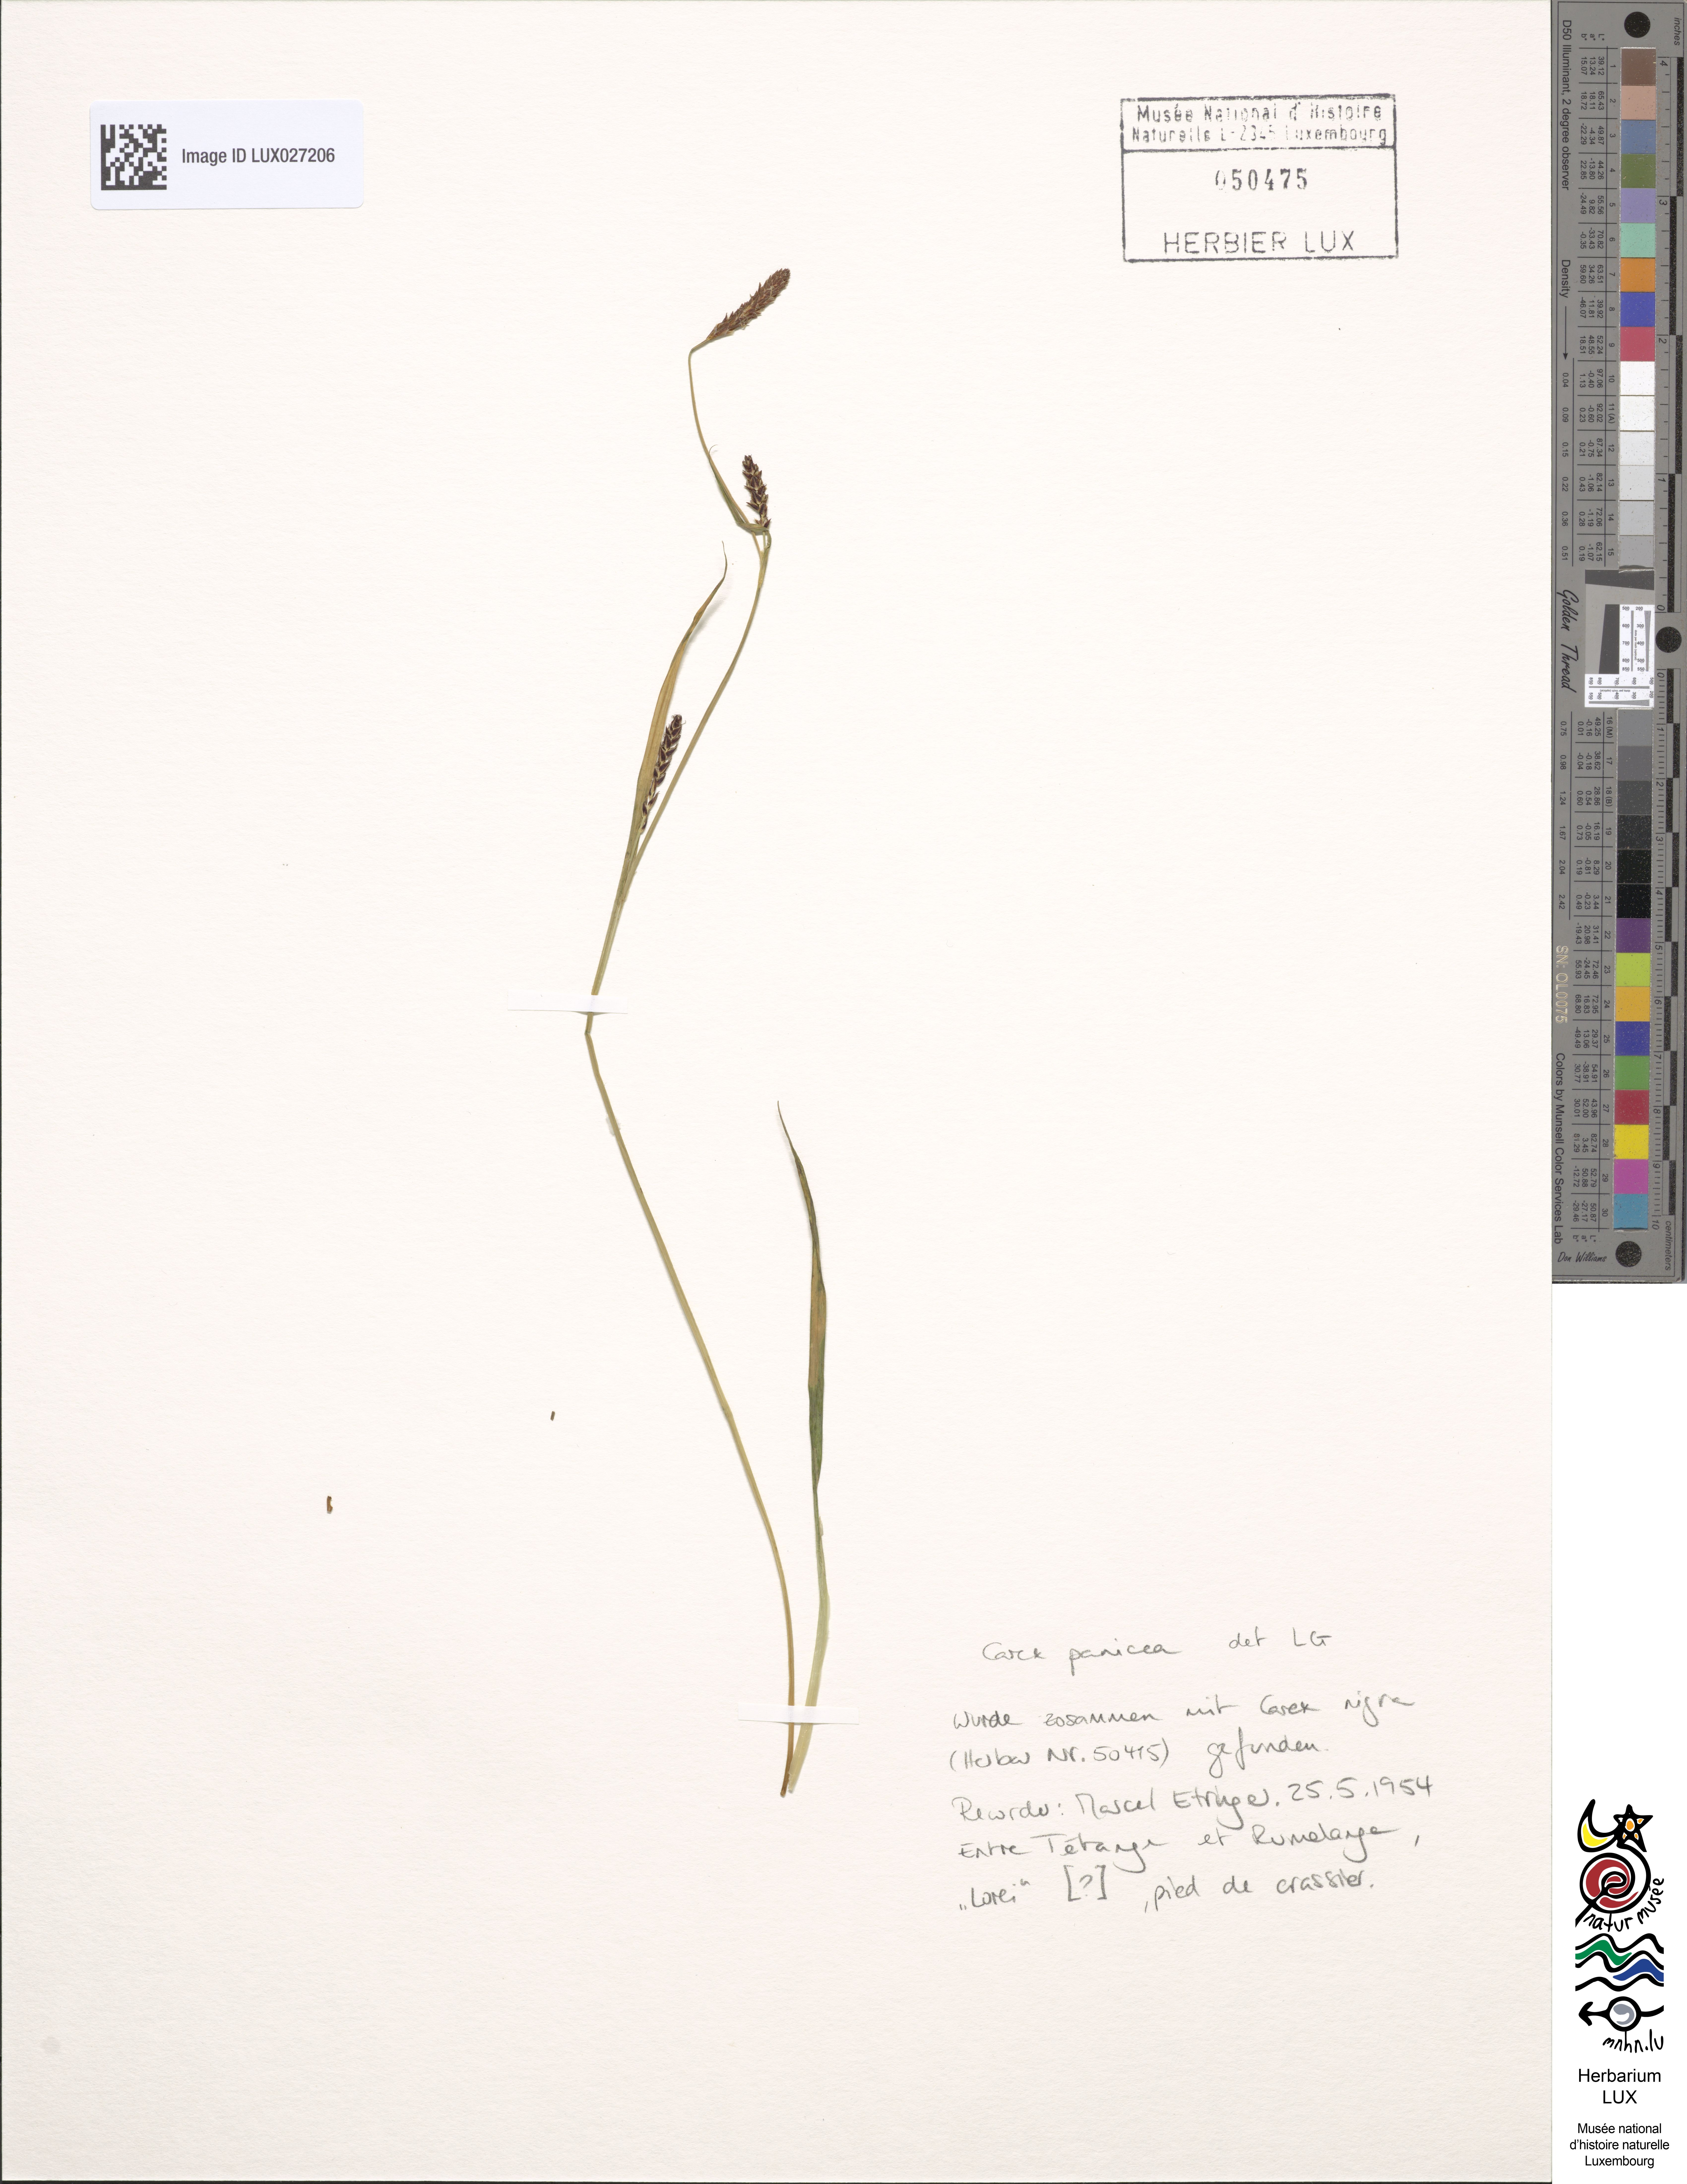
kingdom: Plantae
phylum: Tracheophyta
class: Liliopsida
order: Poales
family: Cyperaceae
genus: Carex
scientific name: Carex panicea
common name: Carnation sedge
